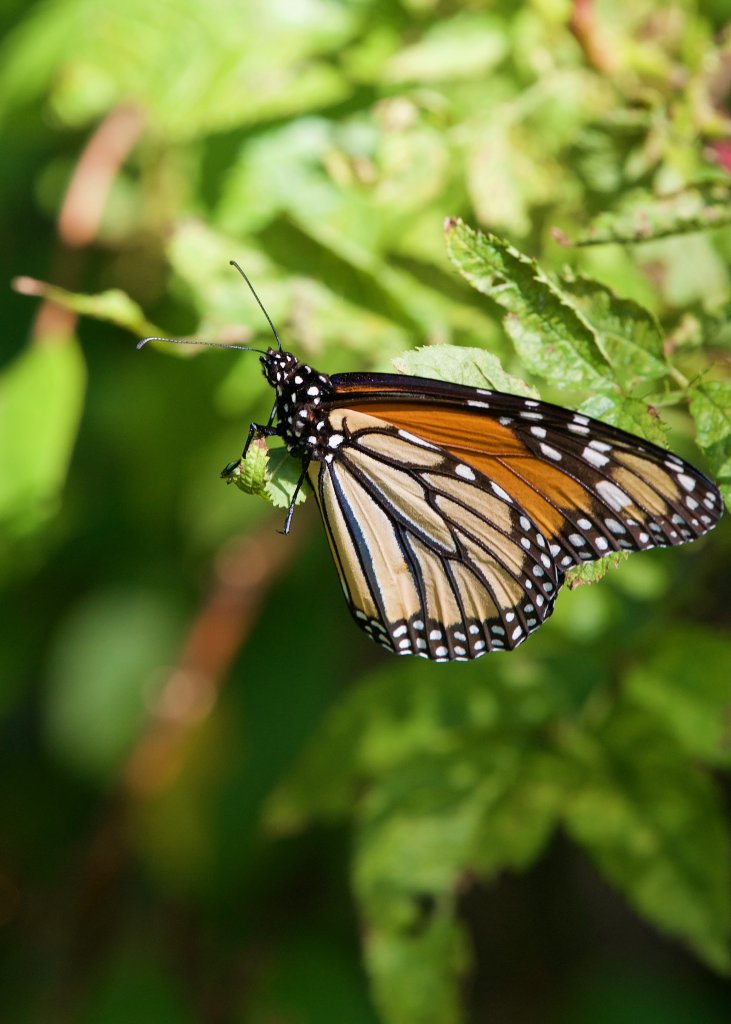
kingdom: Animalia
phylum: Arthropoda
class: Insecta
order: Lepidoptera
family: Nymphalidae
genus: Danaus
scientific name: Danaus plexippus
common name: Monarch
